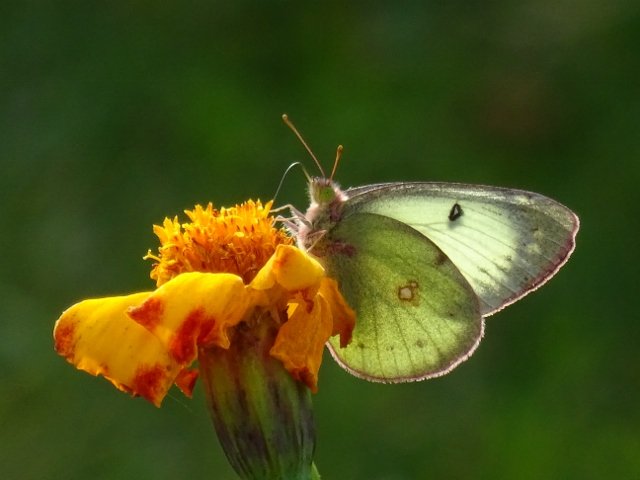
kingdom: Animalia
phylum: Arthropoda
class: Insecta
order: Lepidoptera
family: Pieridae
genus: Colias
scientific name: Colias philodice
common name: Clouded Sulphur
